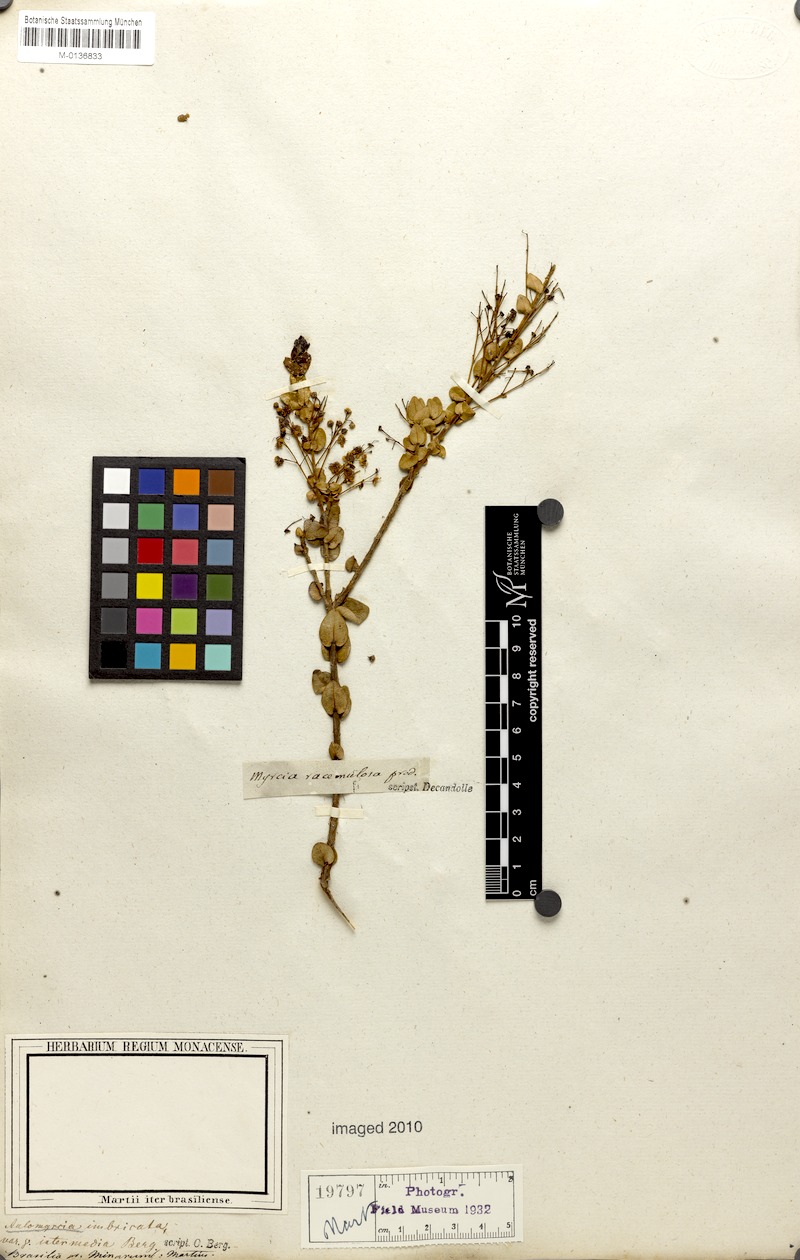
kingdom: Plantae
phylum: Tracheophyta
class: Magnoliopsida
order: Myrtales
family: Myrtaceae
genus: Myrcia
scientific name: Myrcia racemulosa
